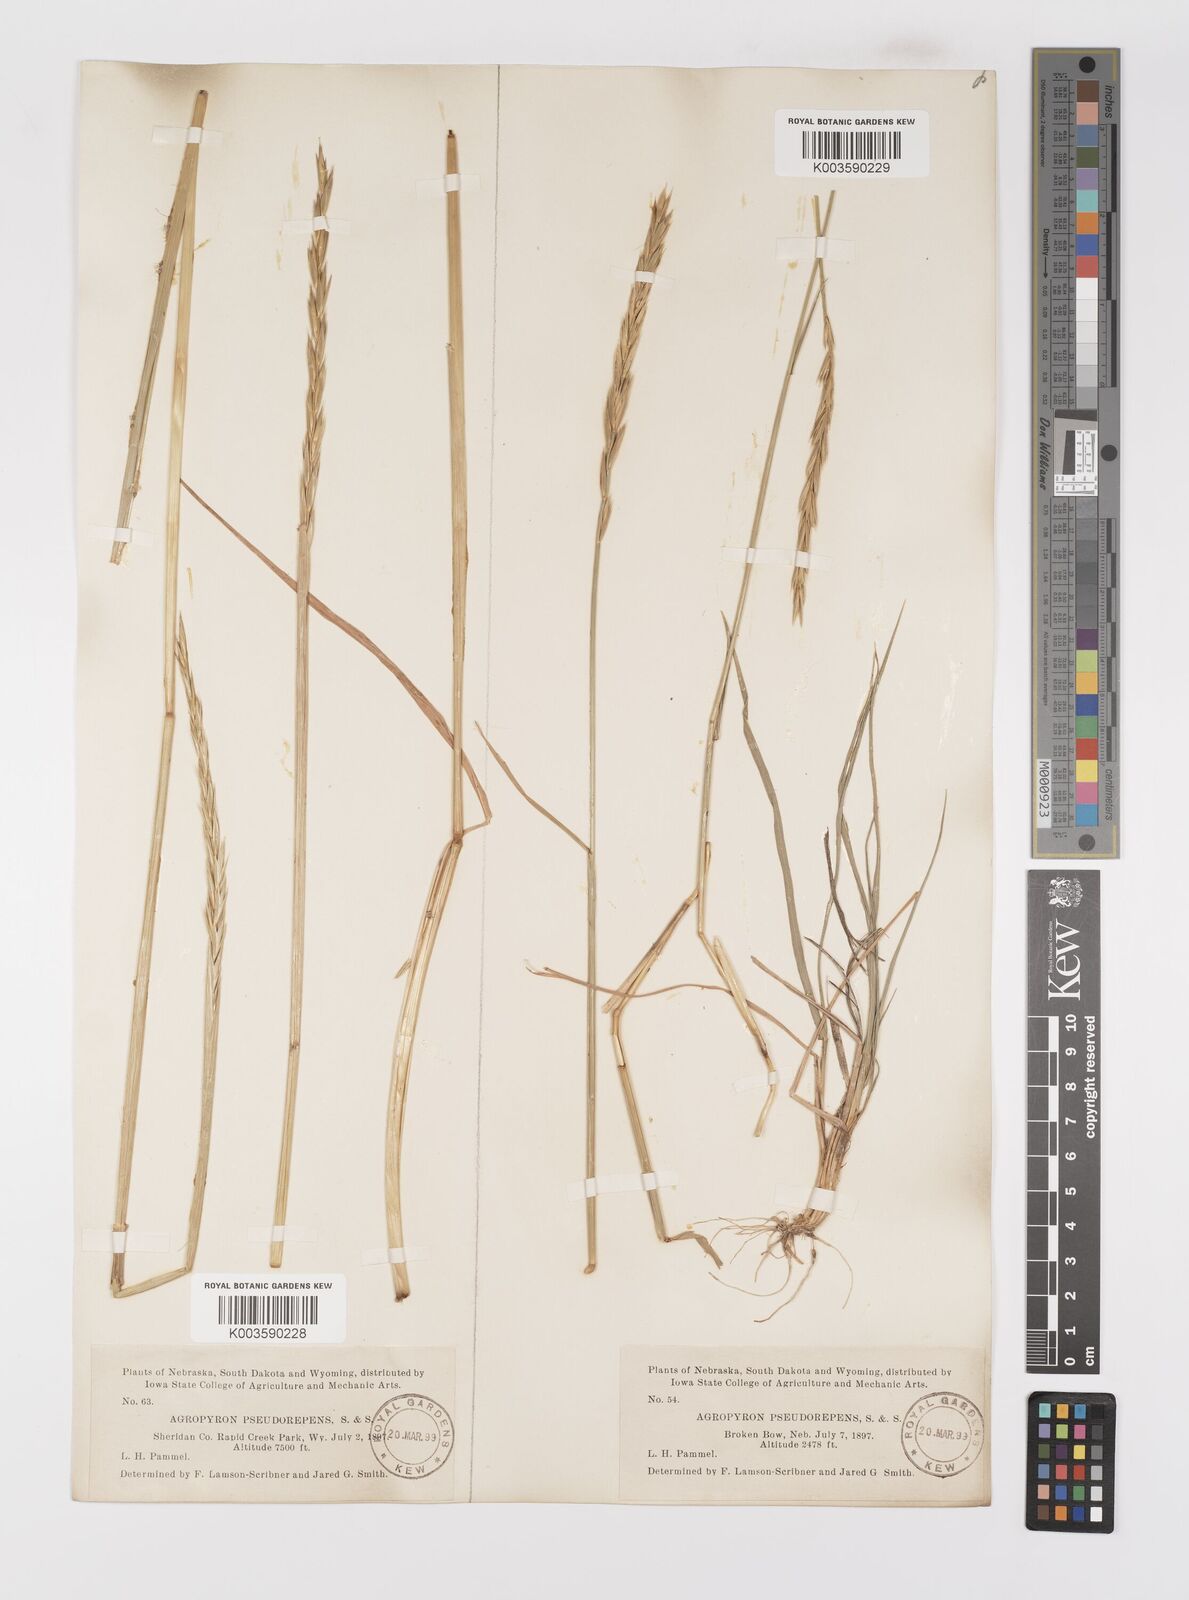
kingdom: Plantae
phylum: Tracheophyta
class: Liliopsida
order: Poales
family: Poaceae
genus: Elymus
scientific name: Elymus violaceus
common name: Arctic wheatgrass
